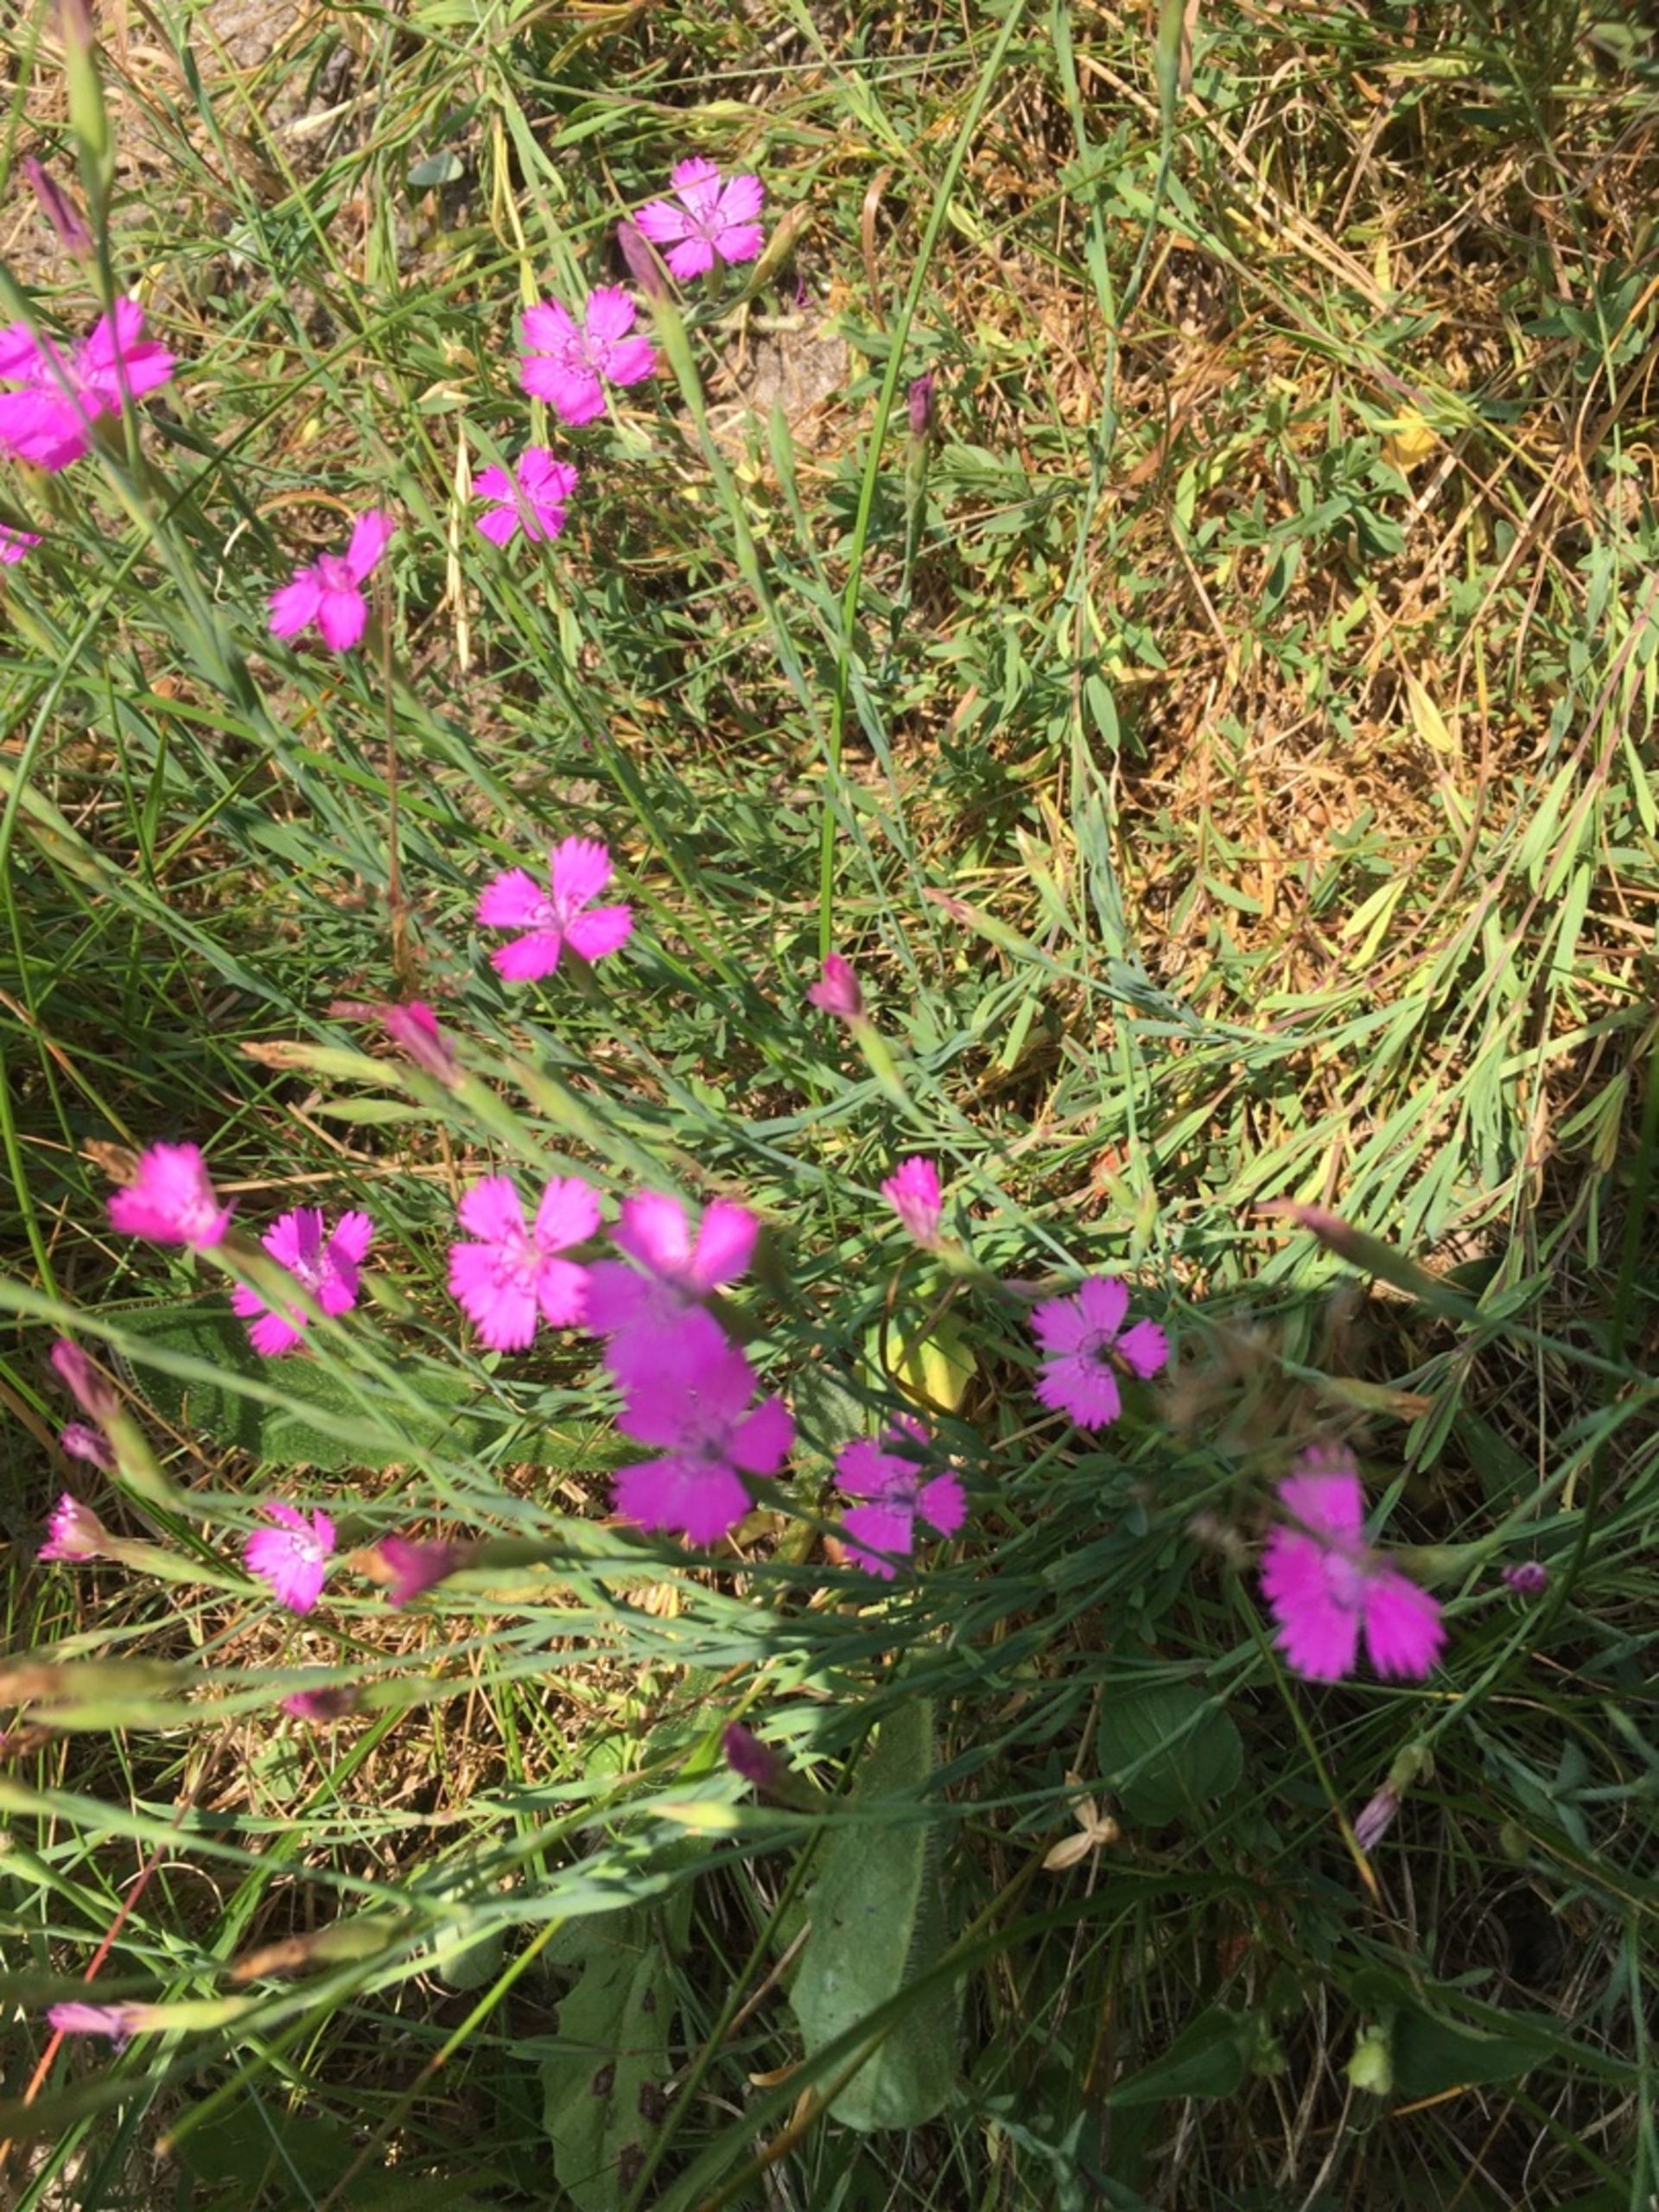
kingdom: Plantae
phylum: Tracheophyta
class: Magnoliopsida
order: Caryophyllales
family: Caryophyllaceae
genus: Dianthus
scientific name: Dianthus deltoides
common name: Bakke-nellike
